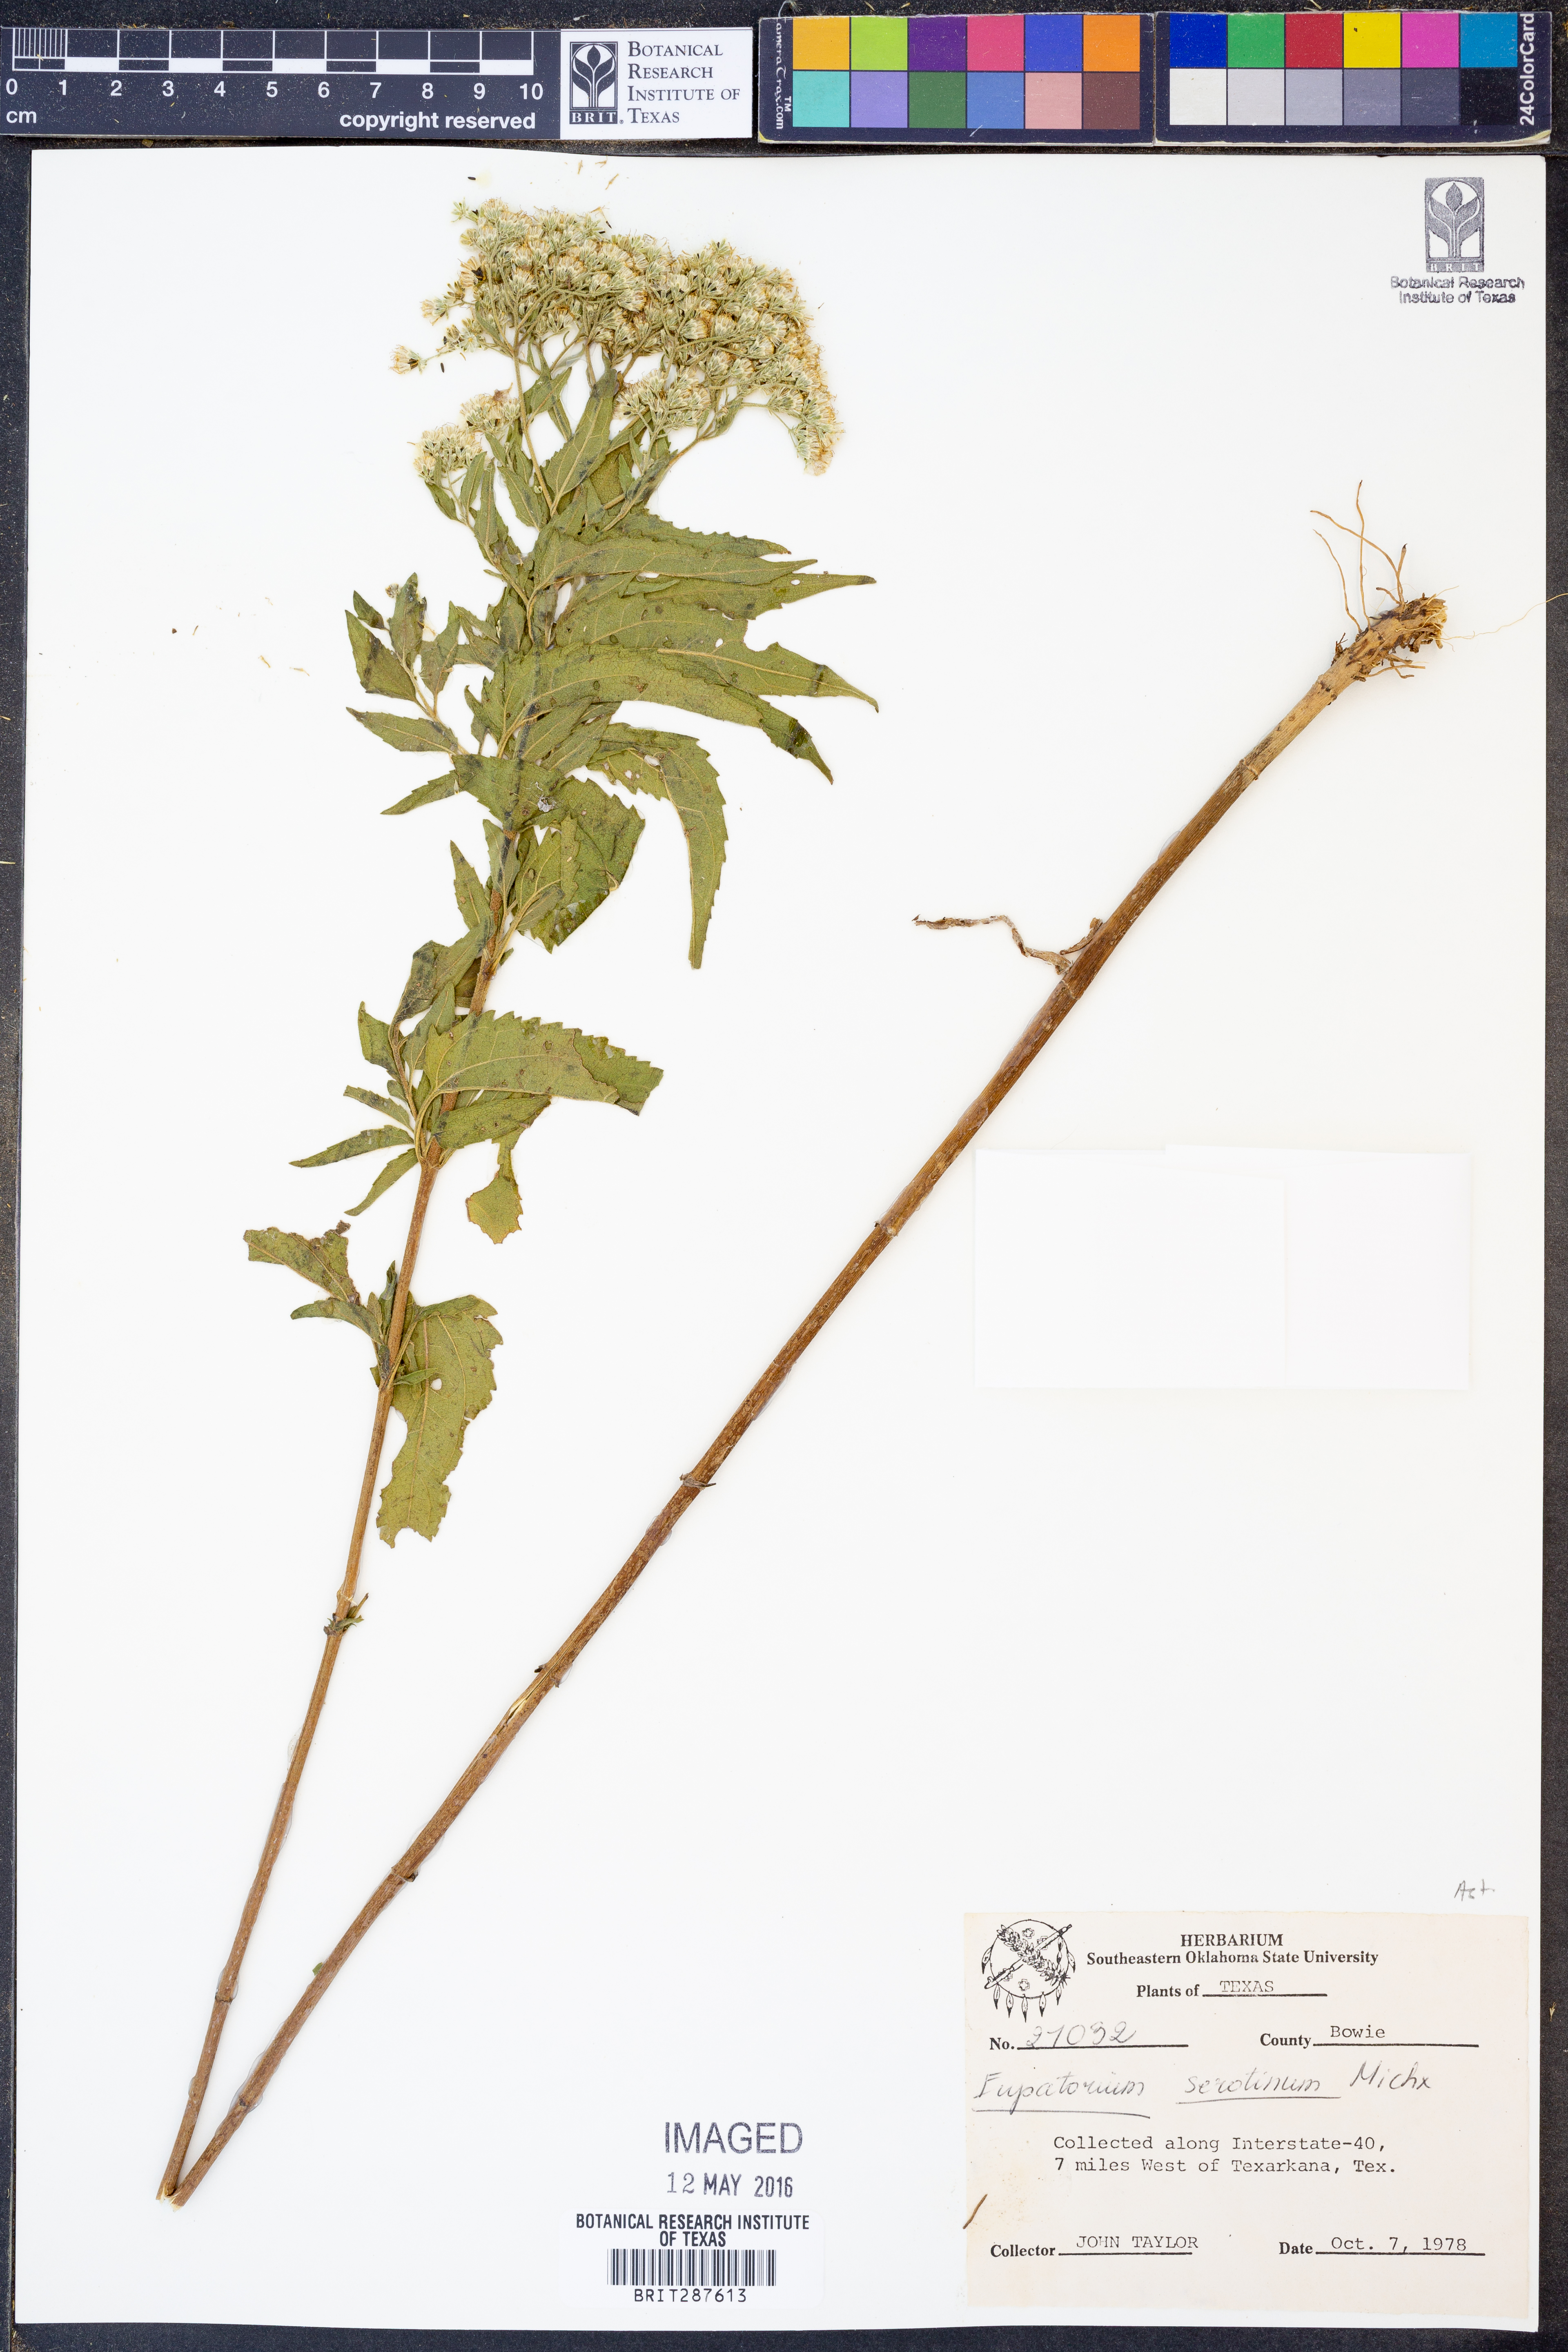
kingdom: Plantae
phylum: Tracheophyta
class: Magnoliopsida
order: Asterales
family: Asteraceae
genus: Eupatorium
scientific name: Eupatorium serotinum
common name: Late boneset
